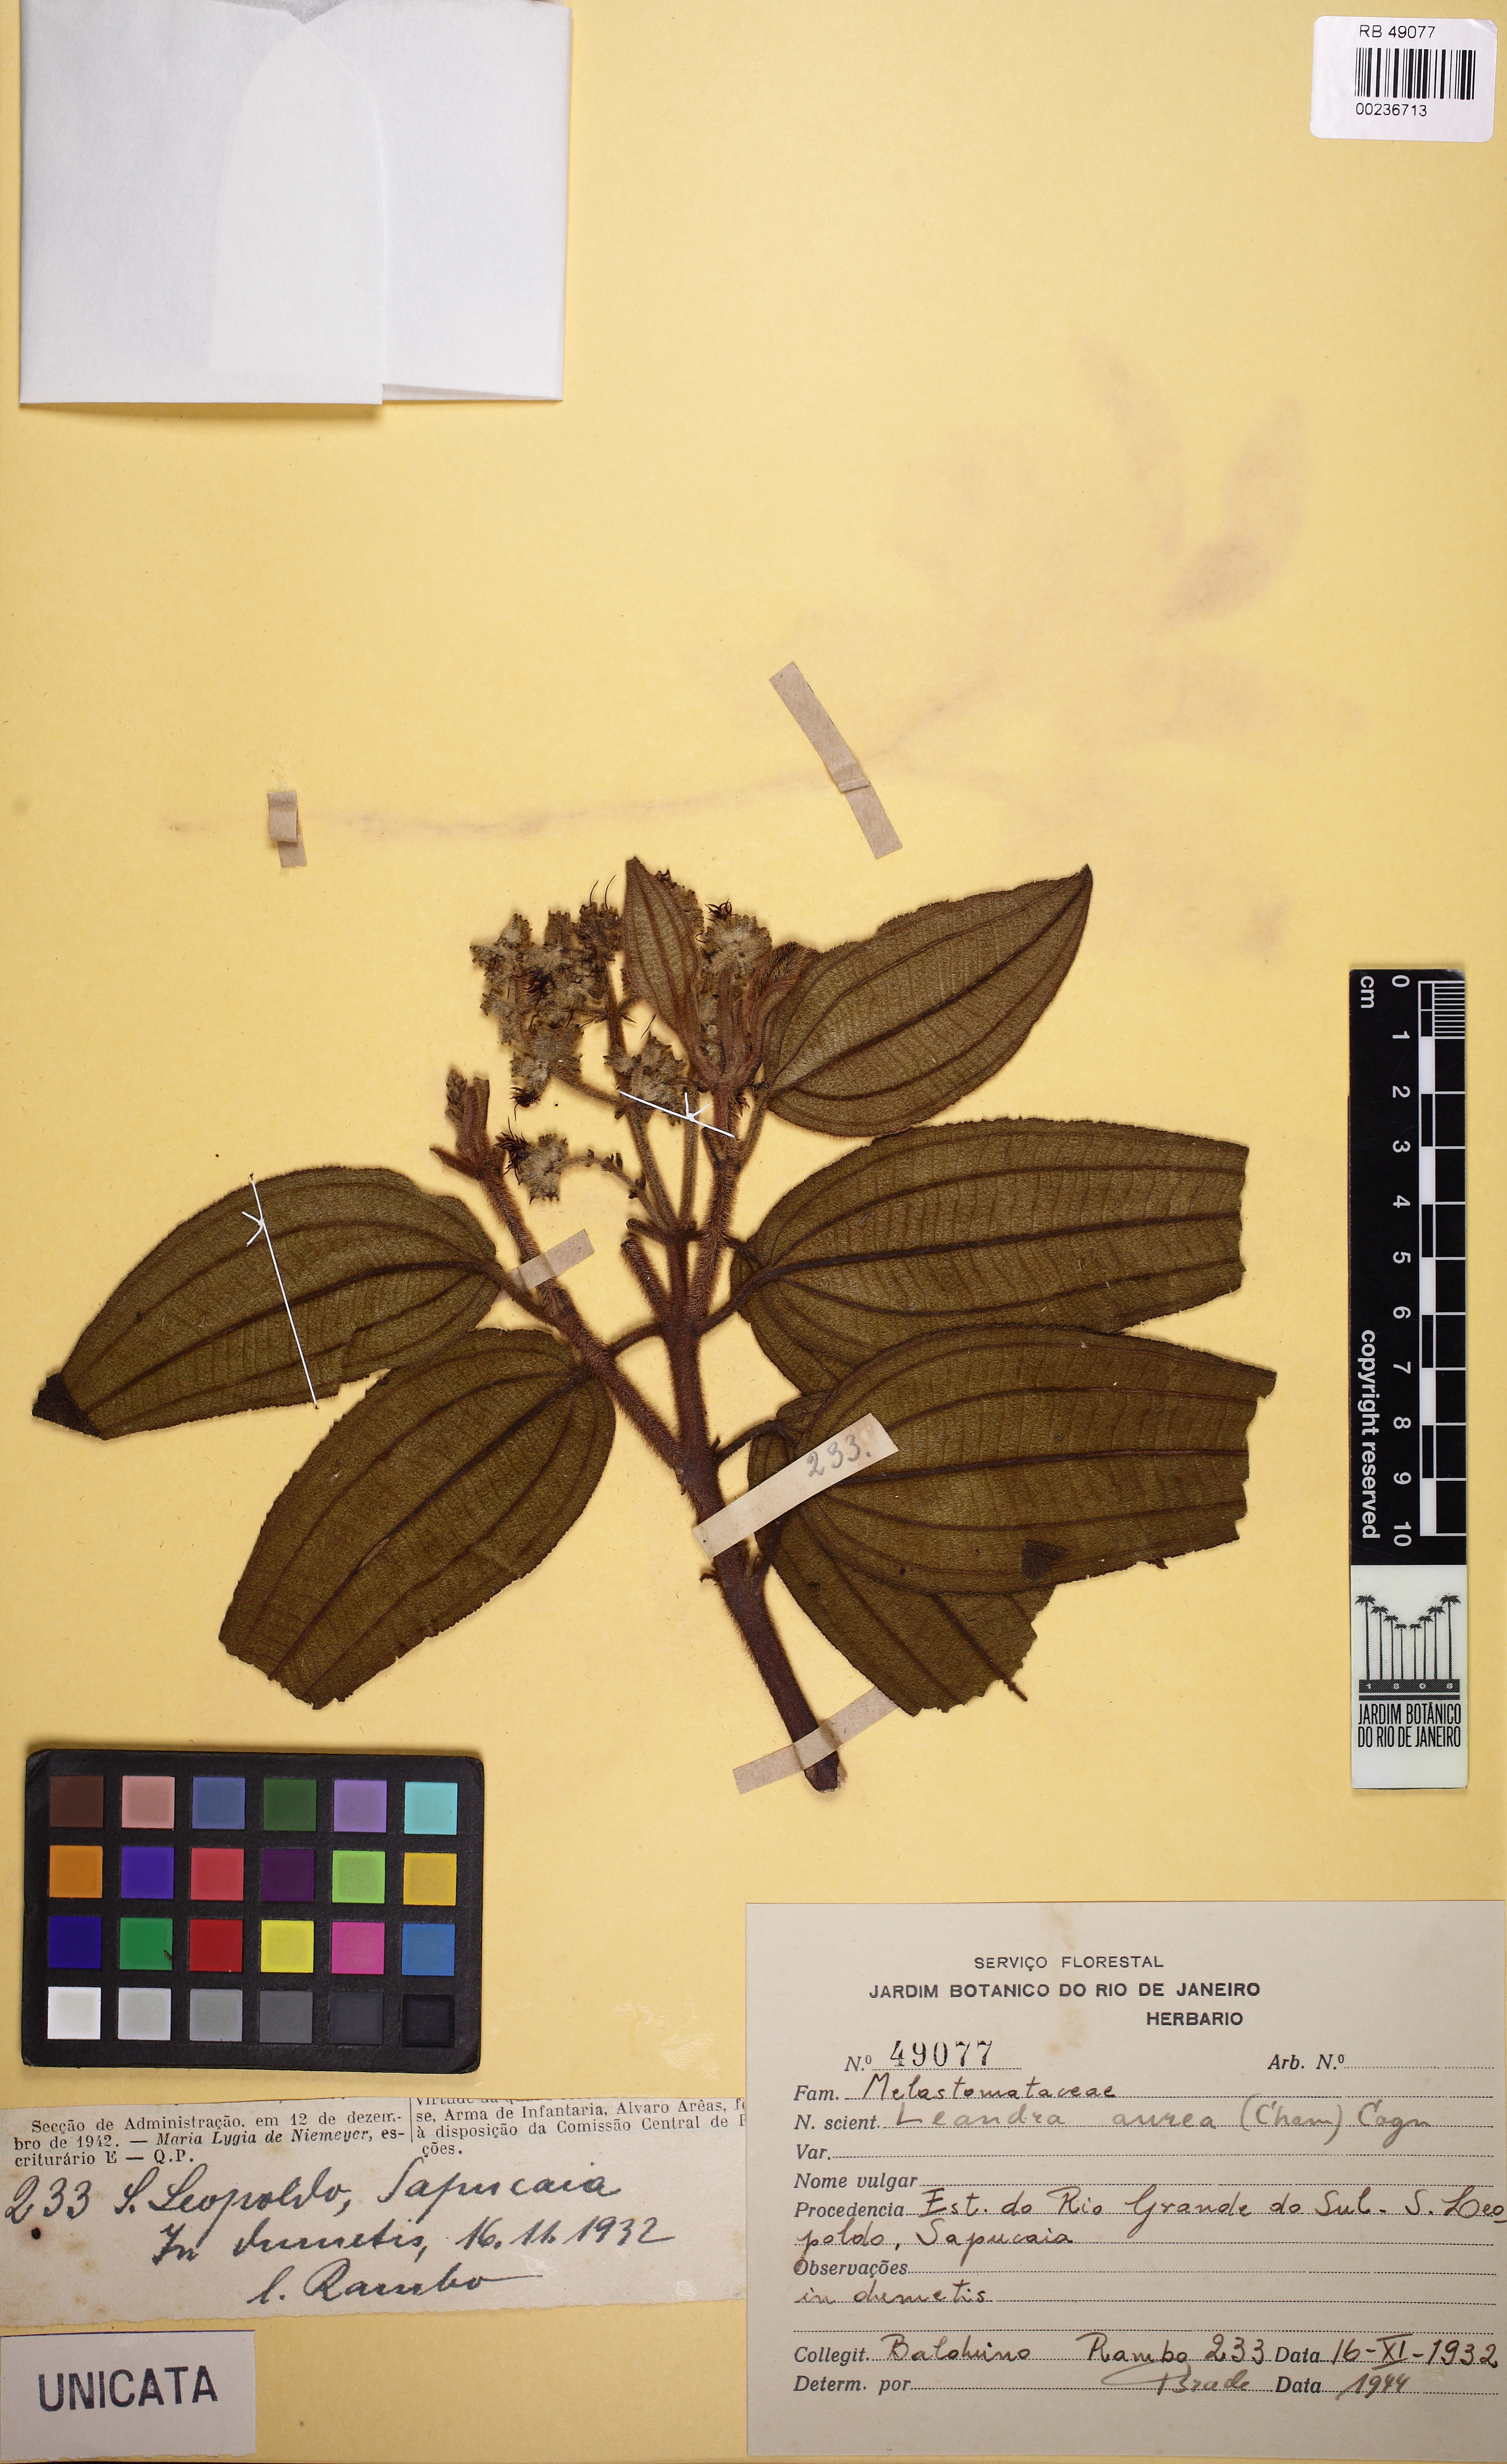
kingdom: Plantae
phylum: Tracheophyta
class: Magnoliopsida
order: Myrtales
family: Melastomataceae
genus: Miconia
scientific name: Miconia auricoma
